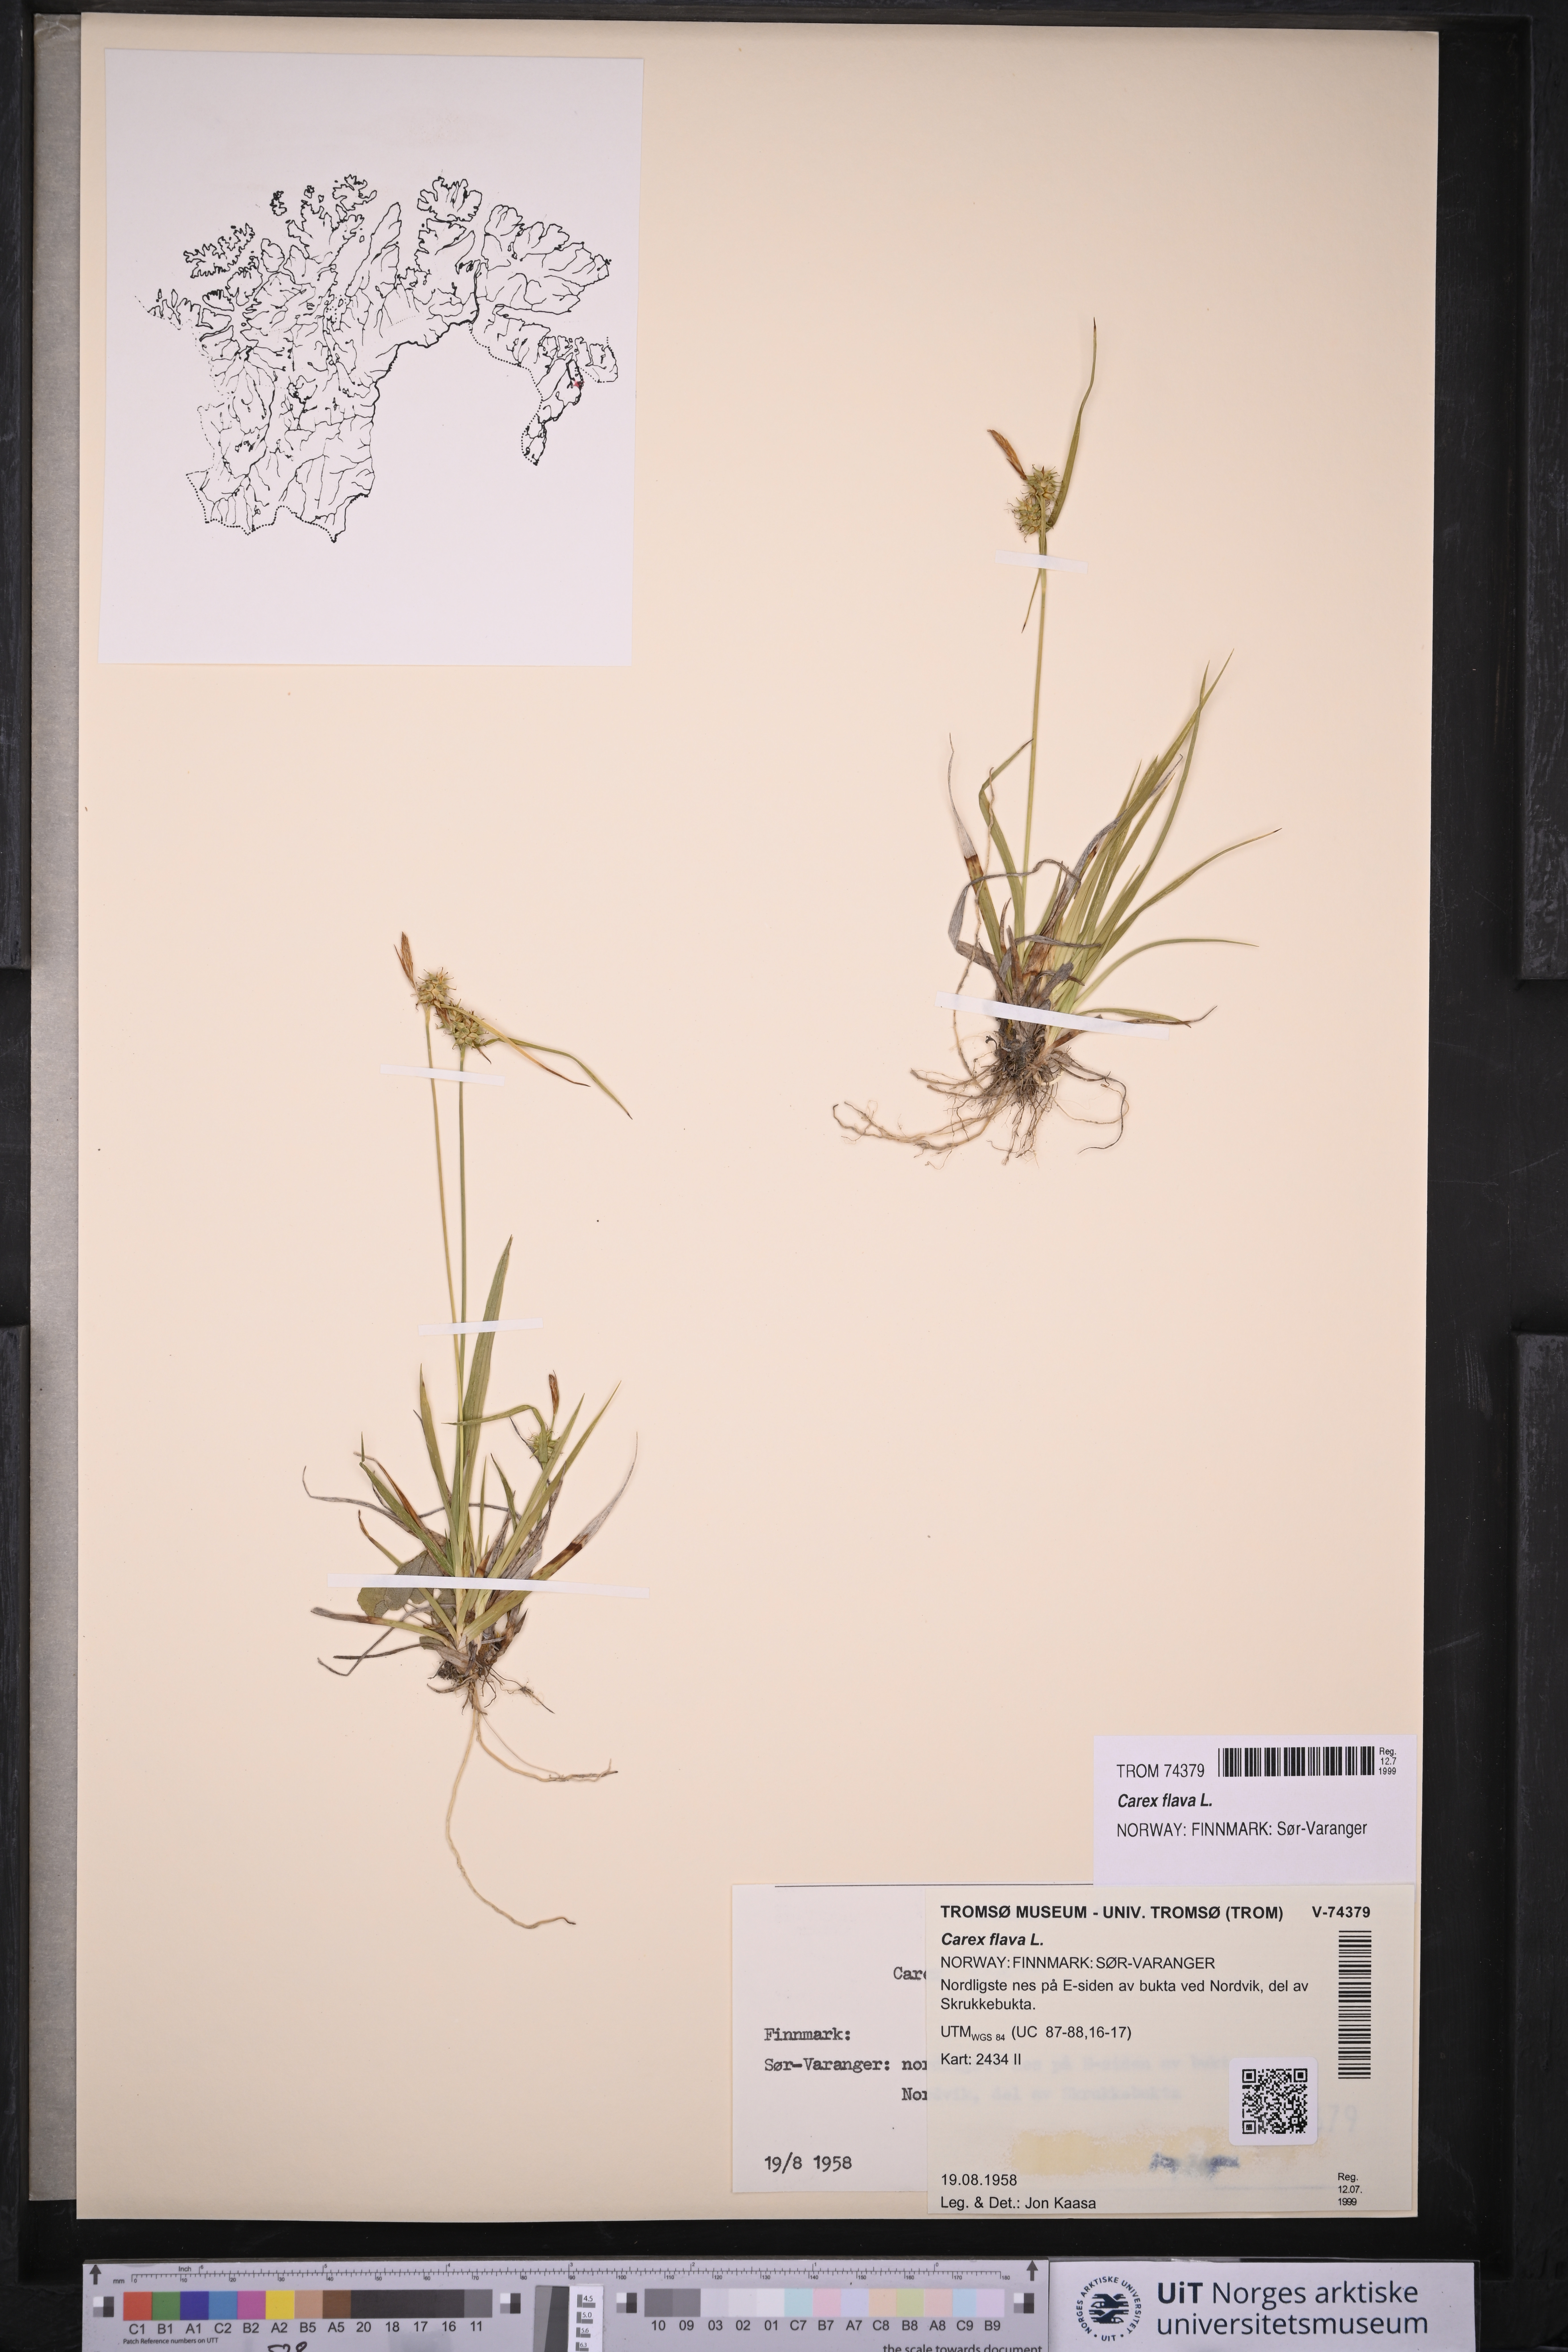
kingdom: Plantae
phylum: Tracheophyta
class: Liliopsida
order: Poales
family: Cyperaceae
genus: Carex
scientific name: Carex flava
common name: Large yellow-sedge
